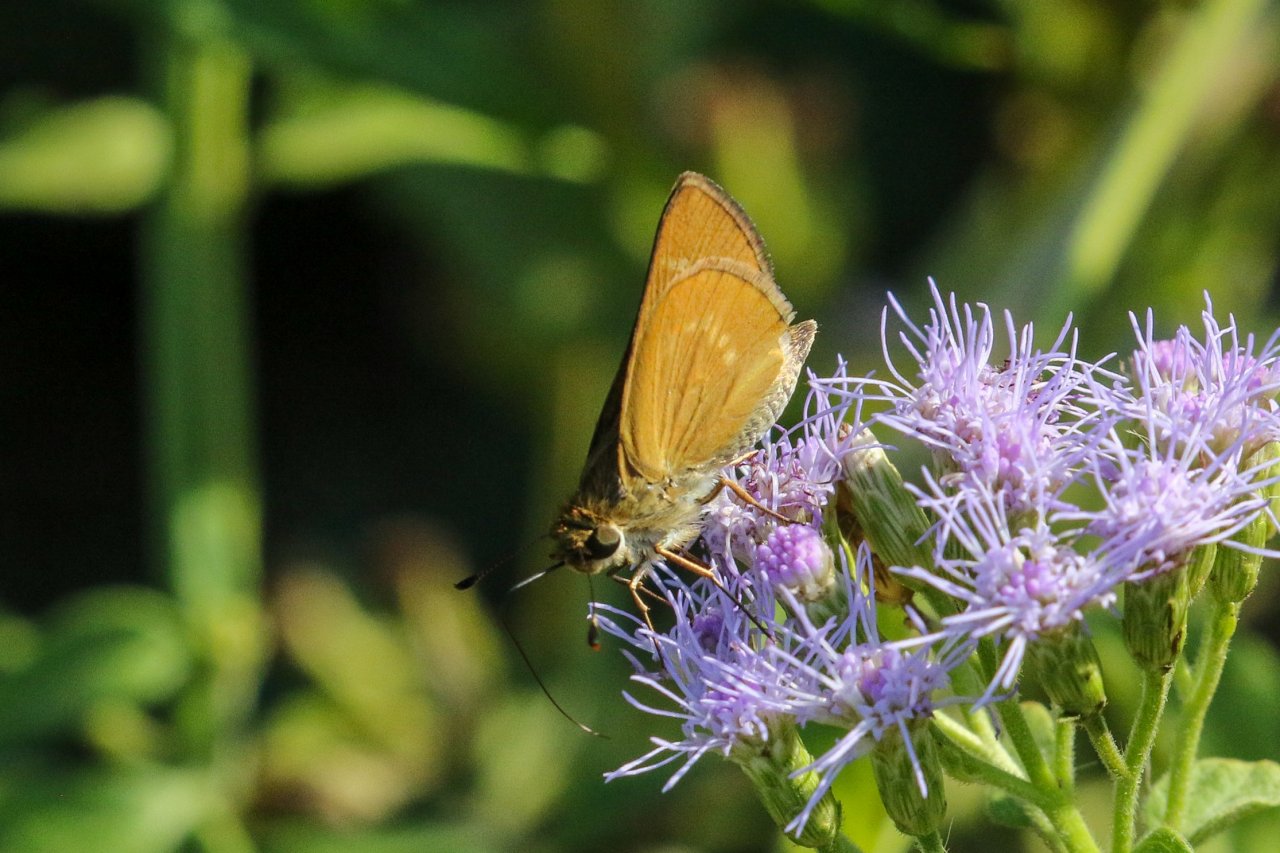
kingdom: Animalia
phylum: Arthropoda
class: Insecta
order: Lepidoptera
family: Hesperiidae
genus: Wallengrenia
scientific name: Wallengrenia otho
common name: Southern Broken-Dash
